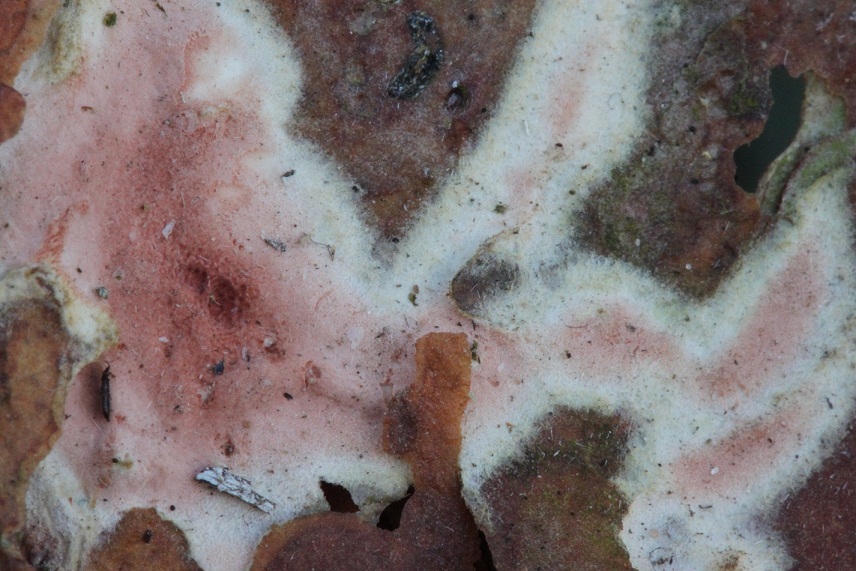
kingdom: Fungi
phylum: Basidiomycota
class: Agaricomycetes
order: Polyporales
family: Irpicaceae
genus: Meruliopsis
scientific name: Meruliopsis taxicola
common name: purpurbrun foldporesvamp
